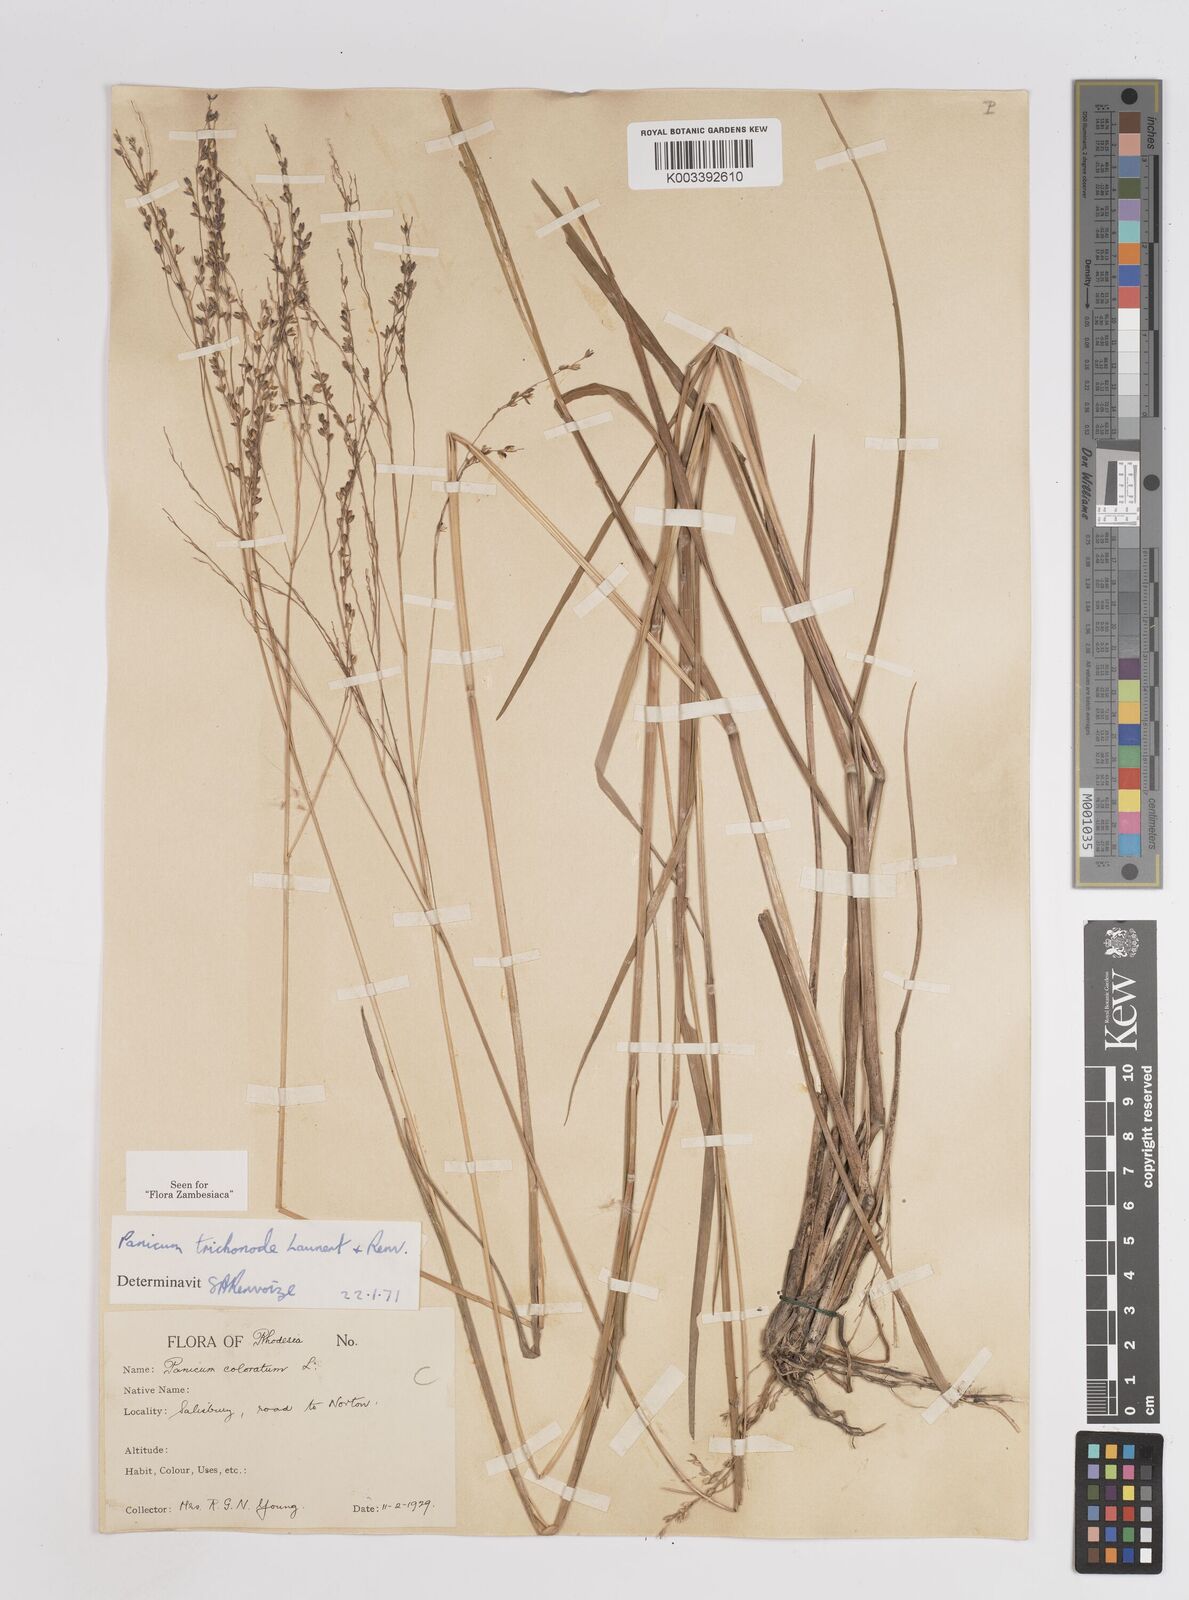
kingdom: Plantae
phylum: Tracheophyta
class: Liliopsida
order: Poales
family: Poaceae
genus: Panicum
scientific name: Panicum trichonode
